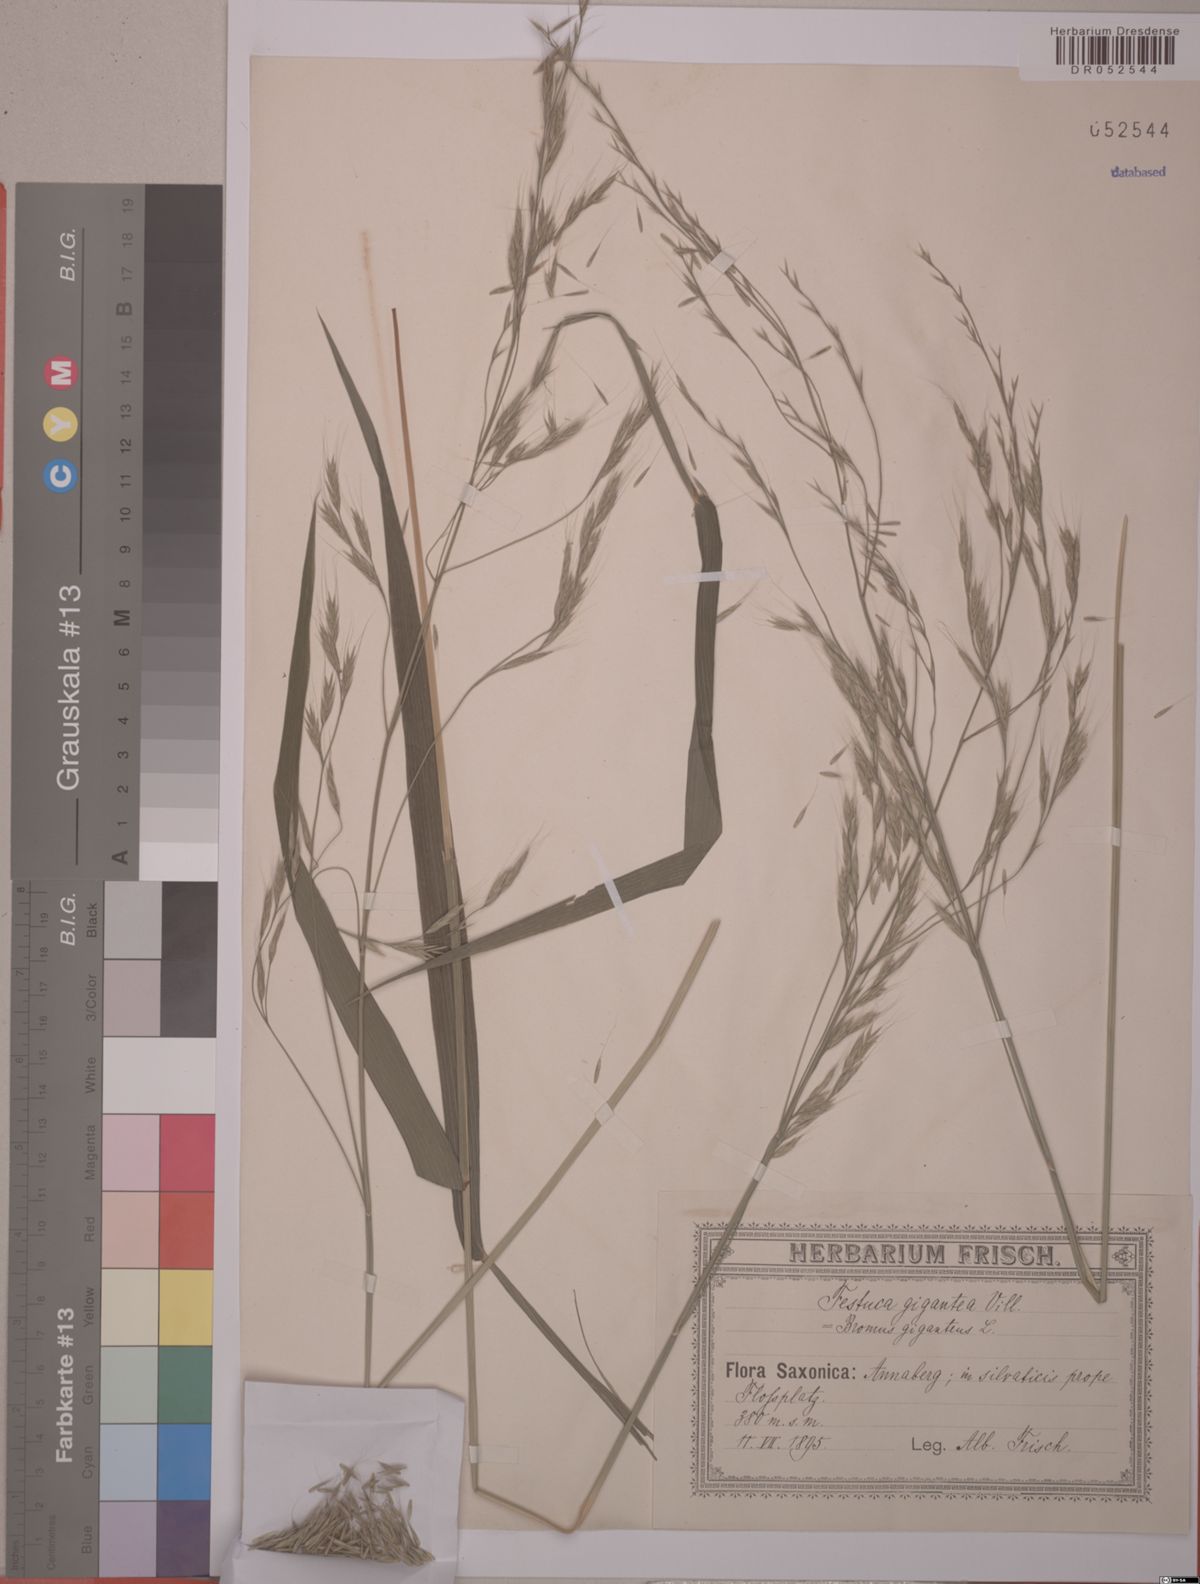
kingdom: Plantae
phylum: Tracheophyta
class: Liliopsida
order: Poales
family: Poaceae
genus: Lolium
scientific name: Lolium giganteum
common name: Giant fescue
